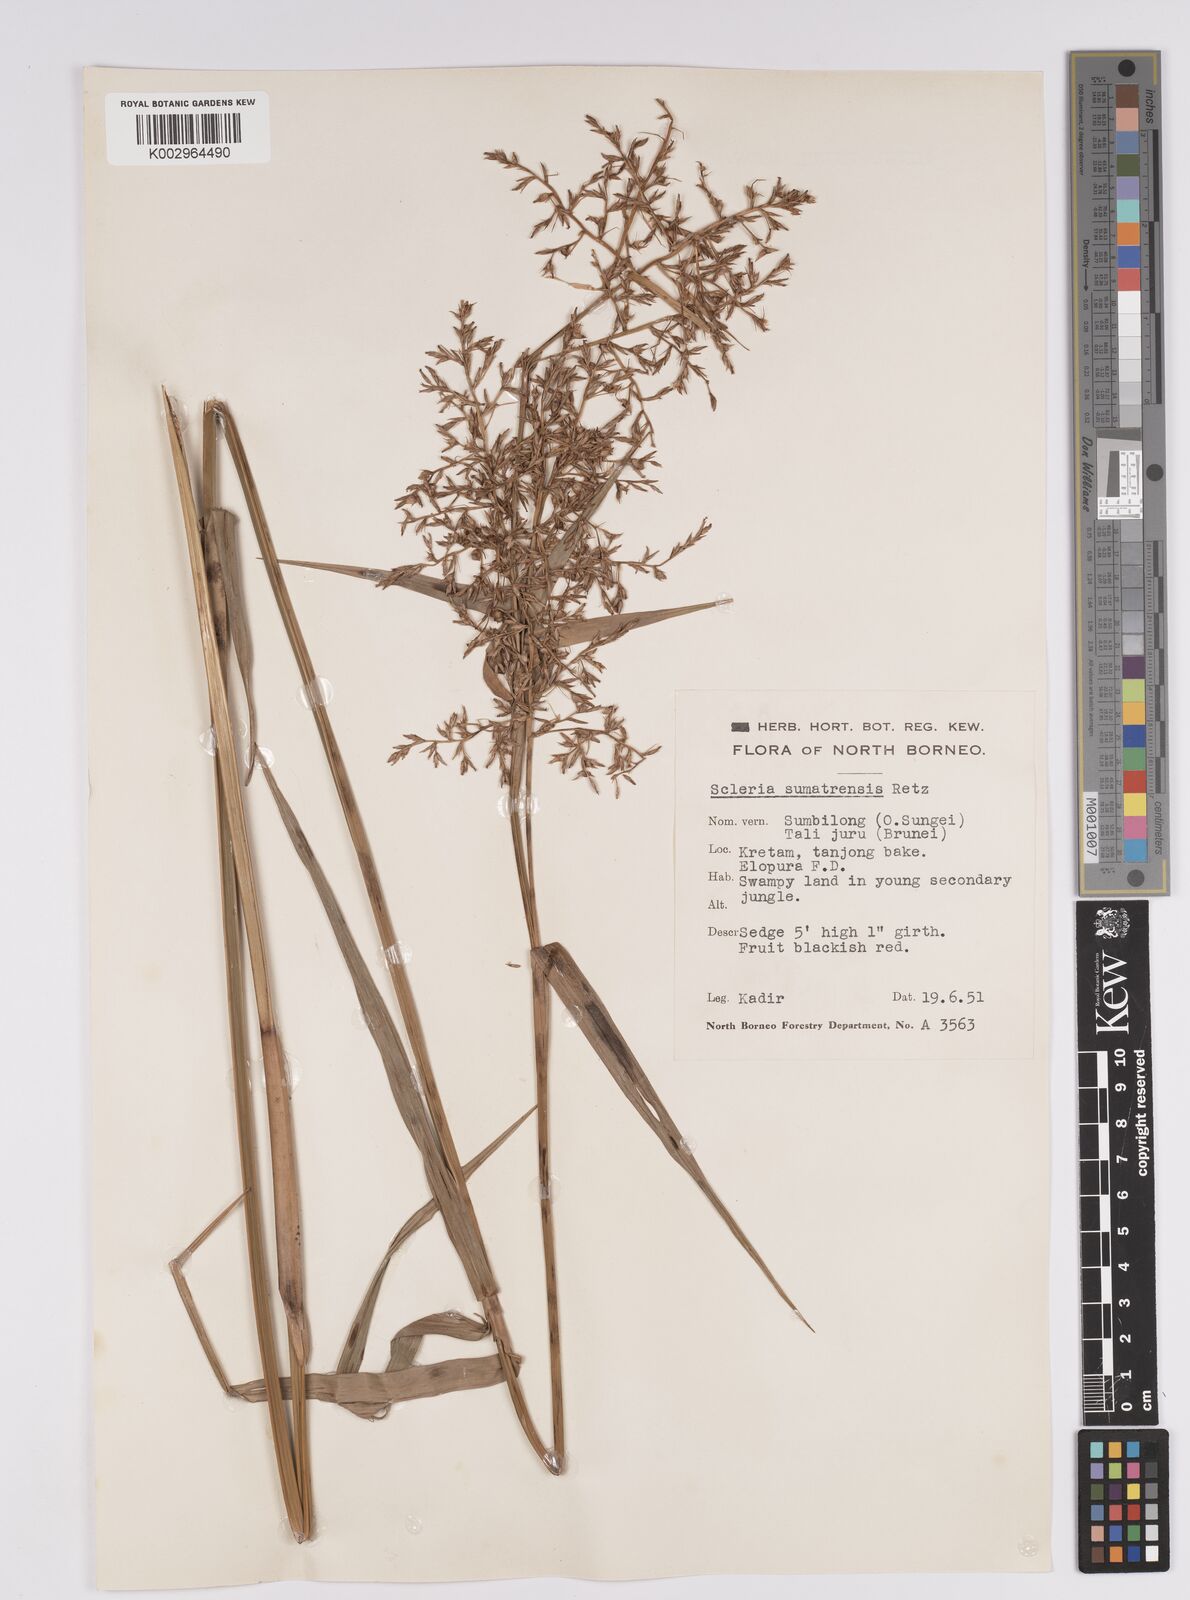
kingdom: Plantae
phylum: Tracheophyta
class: Liliopsida
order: Poales
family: Cyperaceae
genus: Scleria
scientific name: Scleria sumatrensis
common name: Sumatran scleria
